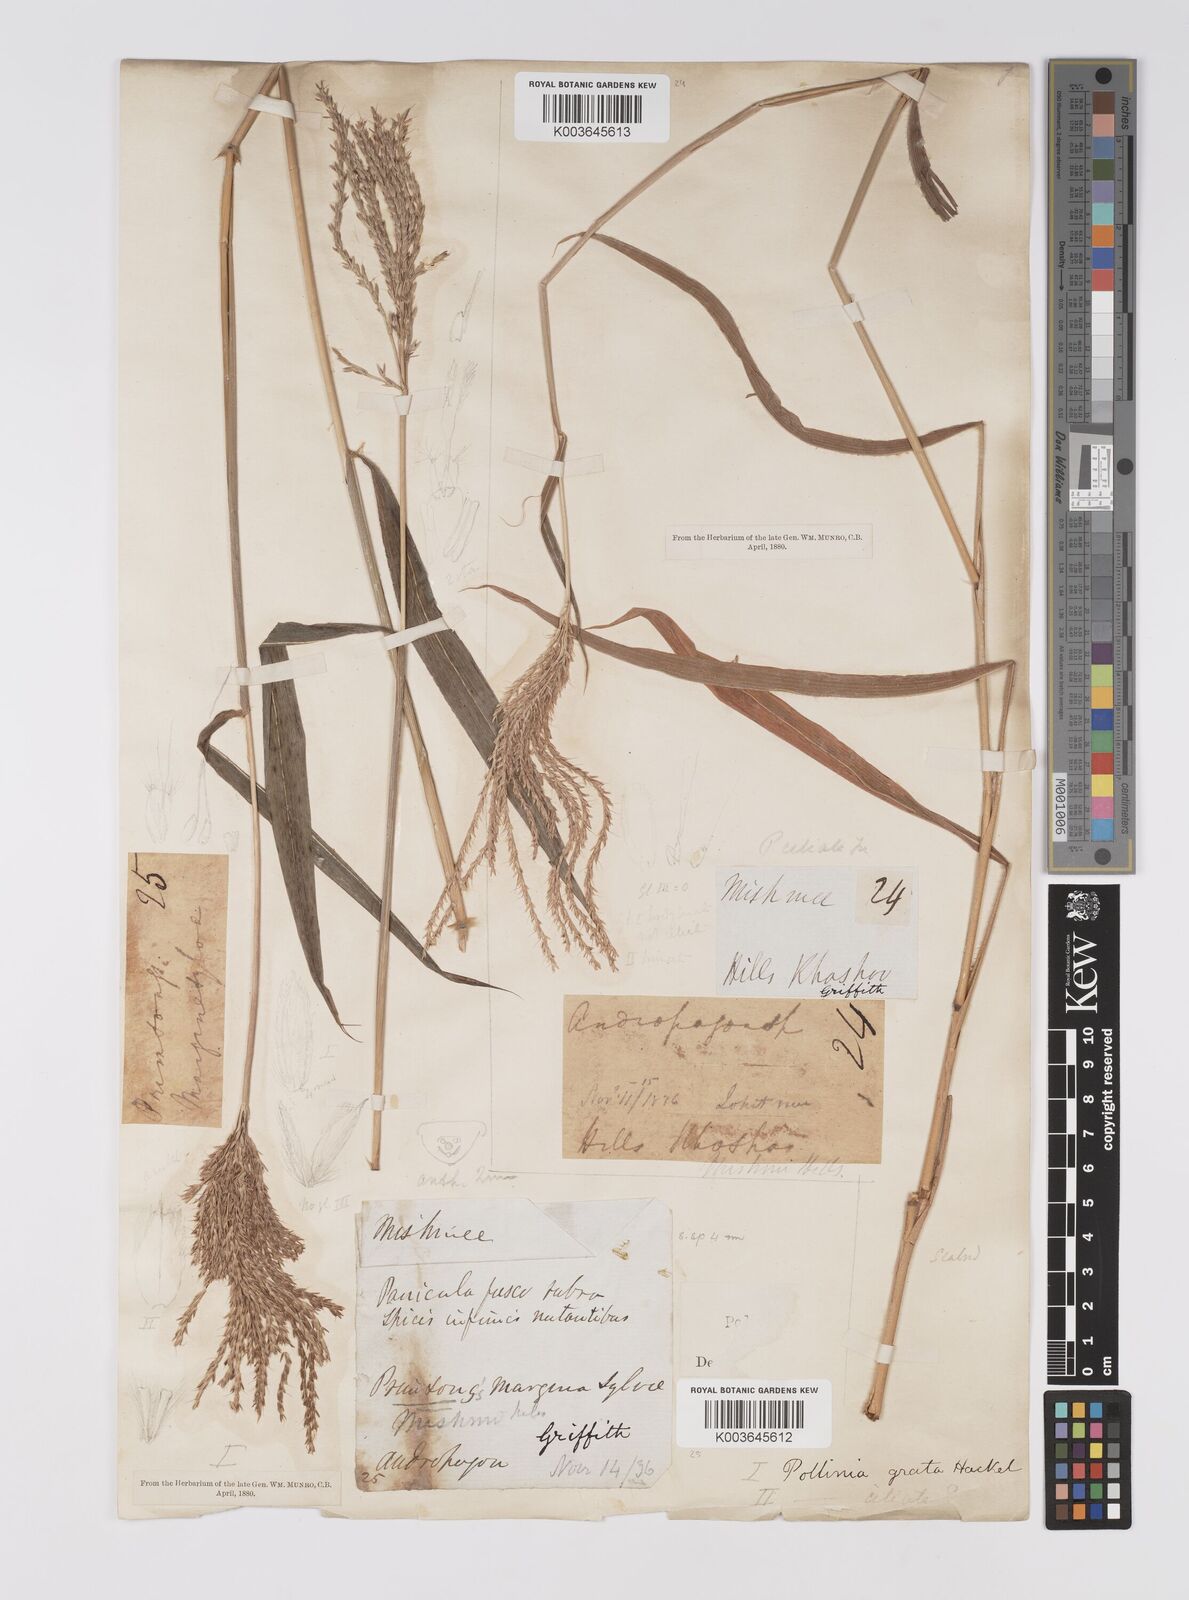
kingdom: Plantae
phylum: Tracheophyta
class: Liliopsida
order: Poales
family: Poaceae
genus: Microstegium
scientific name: Microstegium fasciculatum
